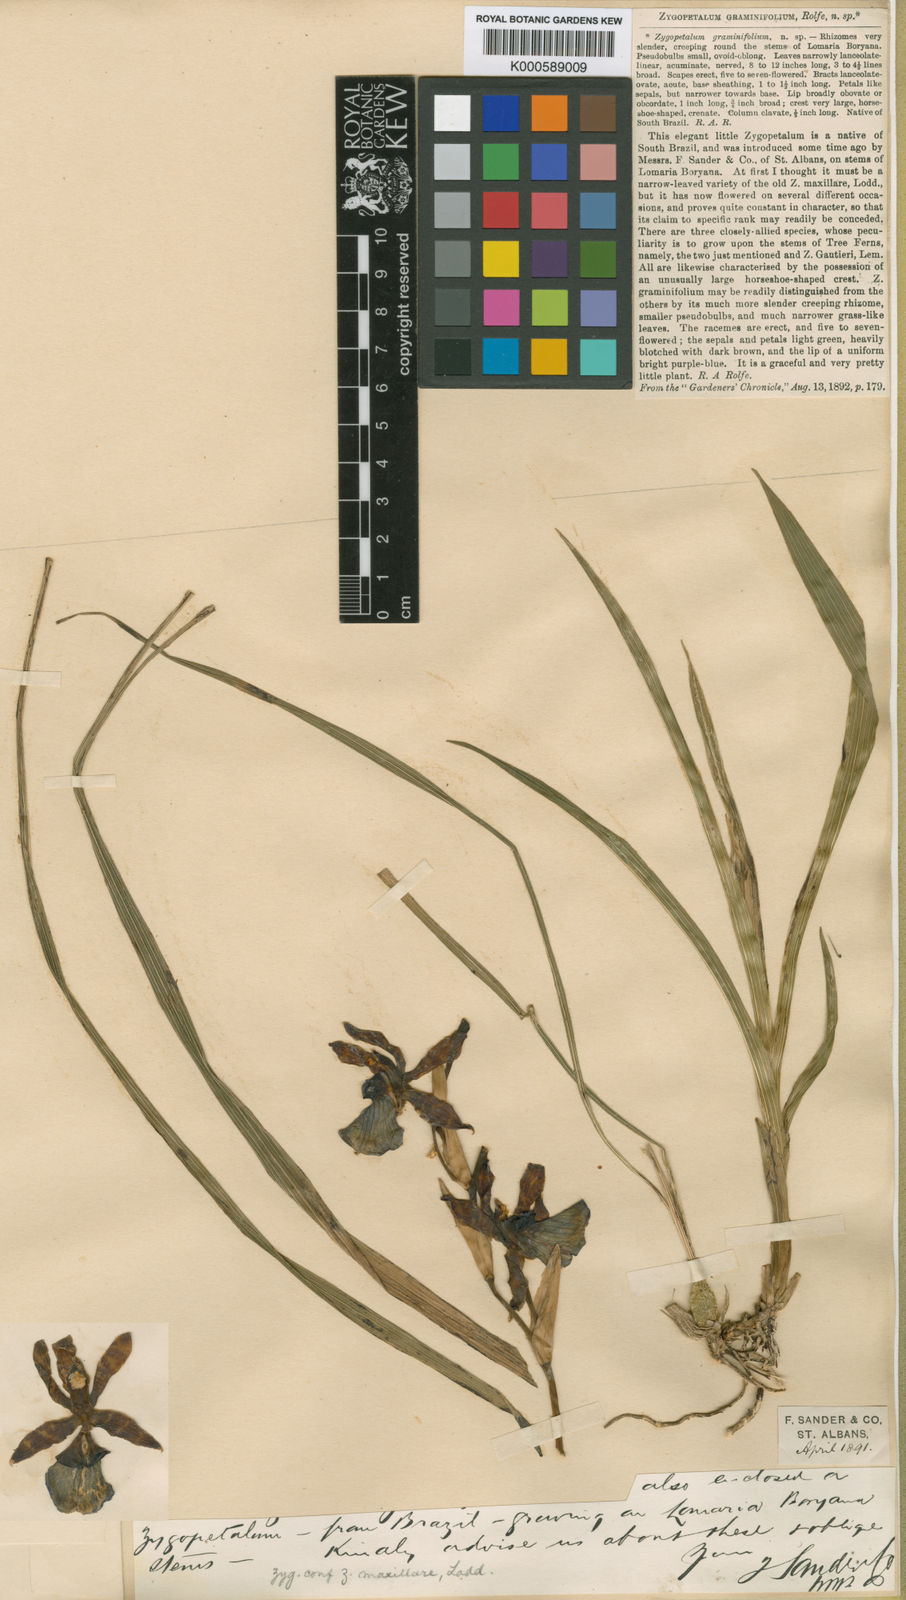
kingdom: Plantae
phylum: Tracheophyta
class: Liliopsida
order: Asparagales
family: Orchidaceae
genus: Zygopetalum
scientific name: Zygopetalum graminifolium
